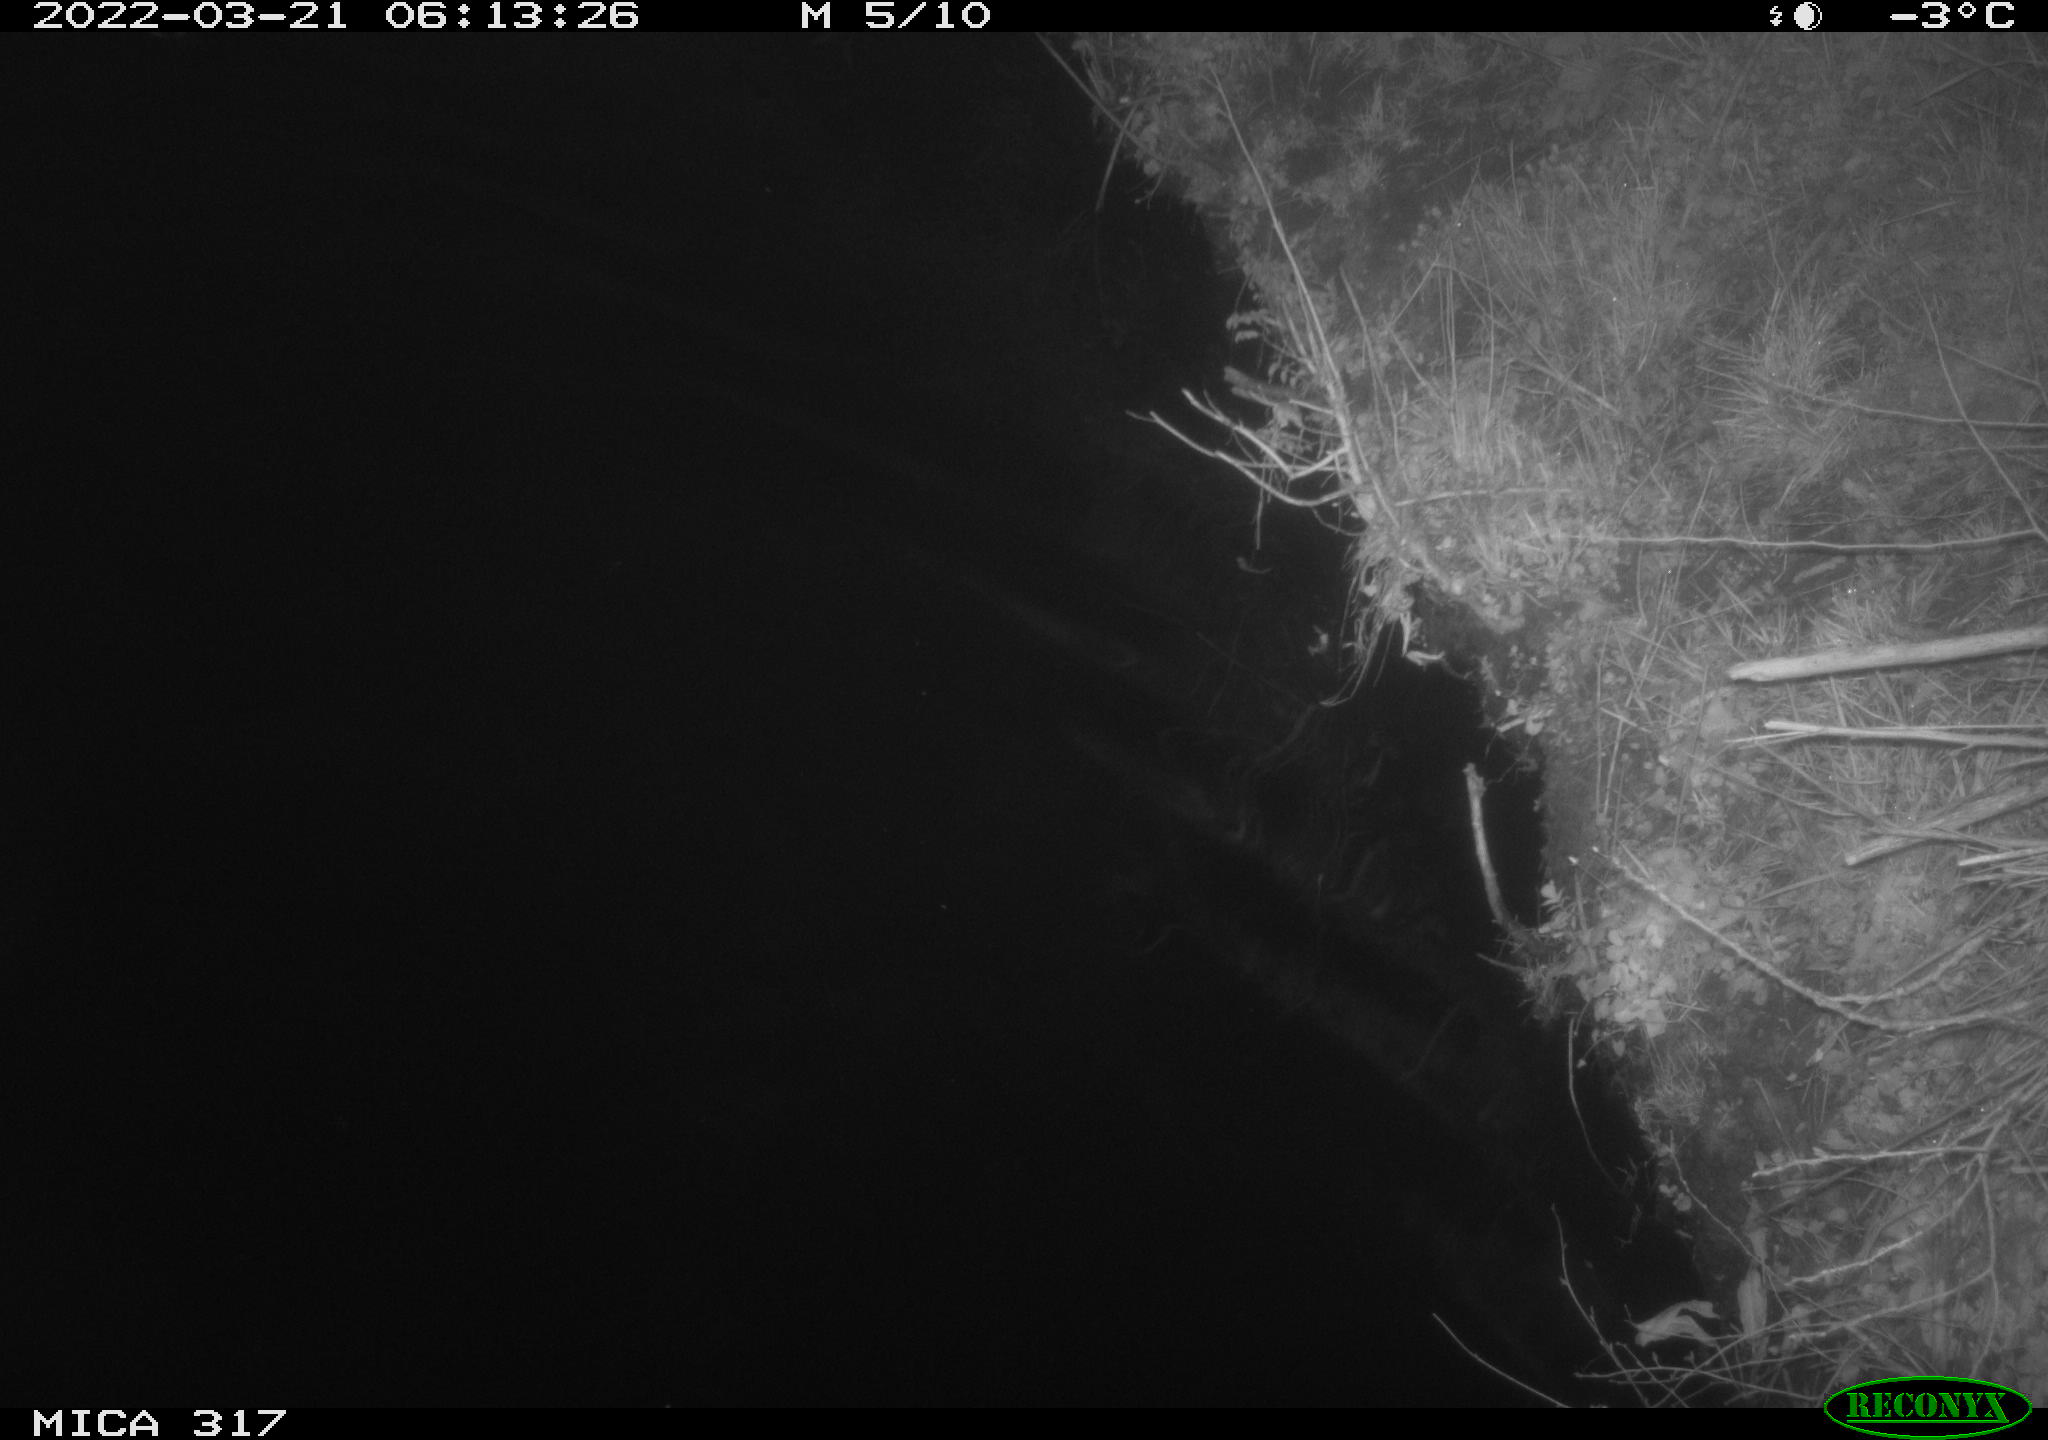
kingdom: Animalia
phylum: Chordata
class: Aves
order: Anseriformes
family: Anatidae
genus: Anas
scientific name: Anas platyrhynchos
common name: Mallard
